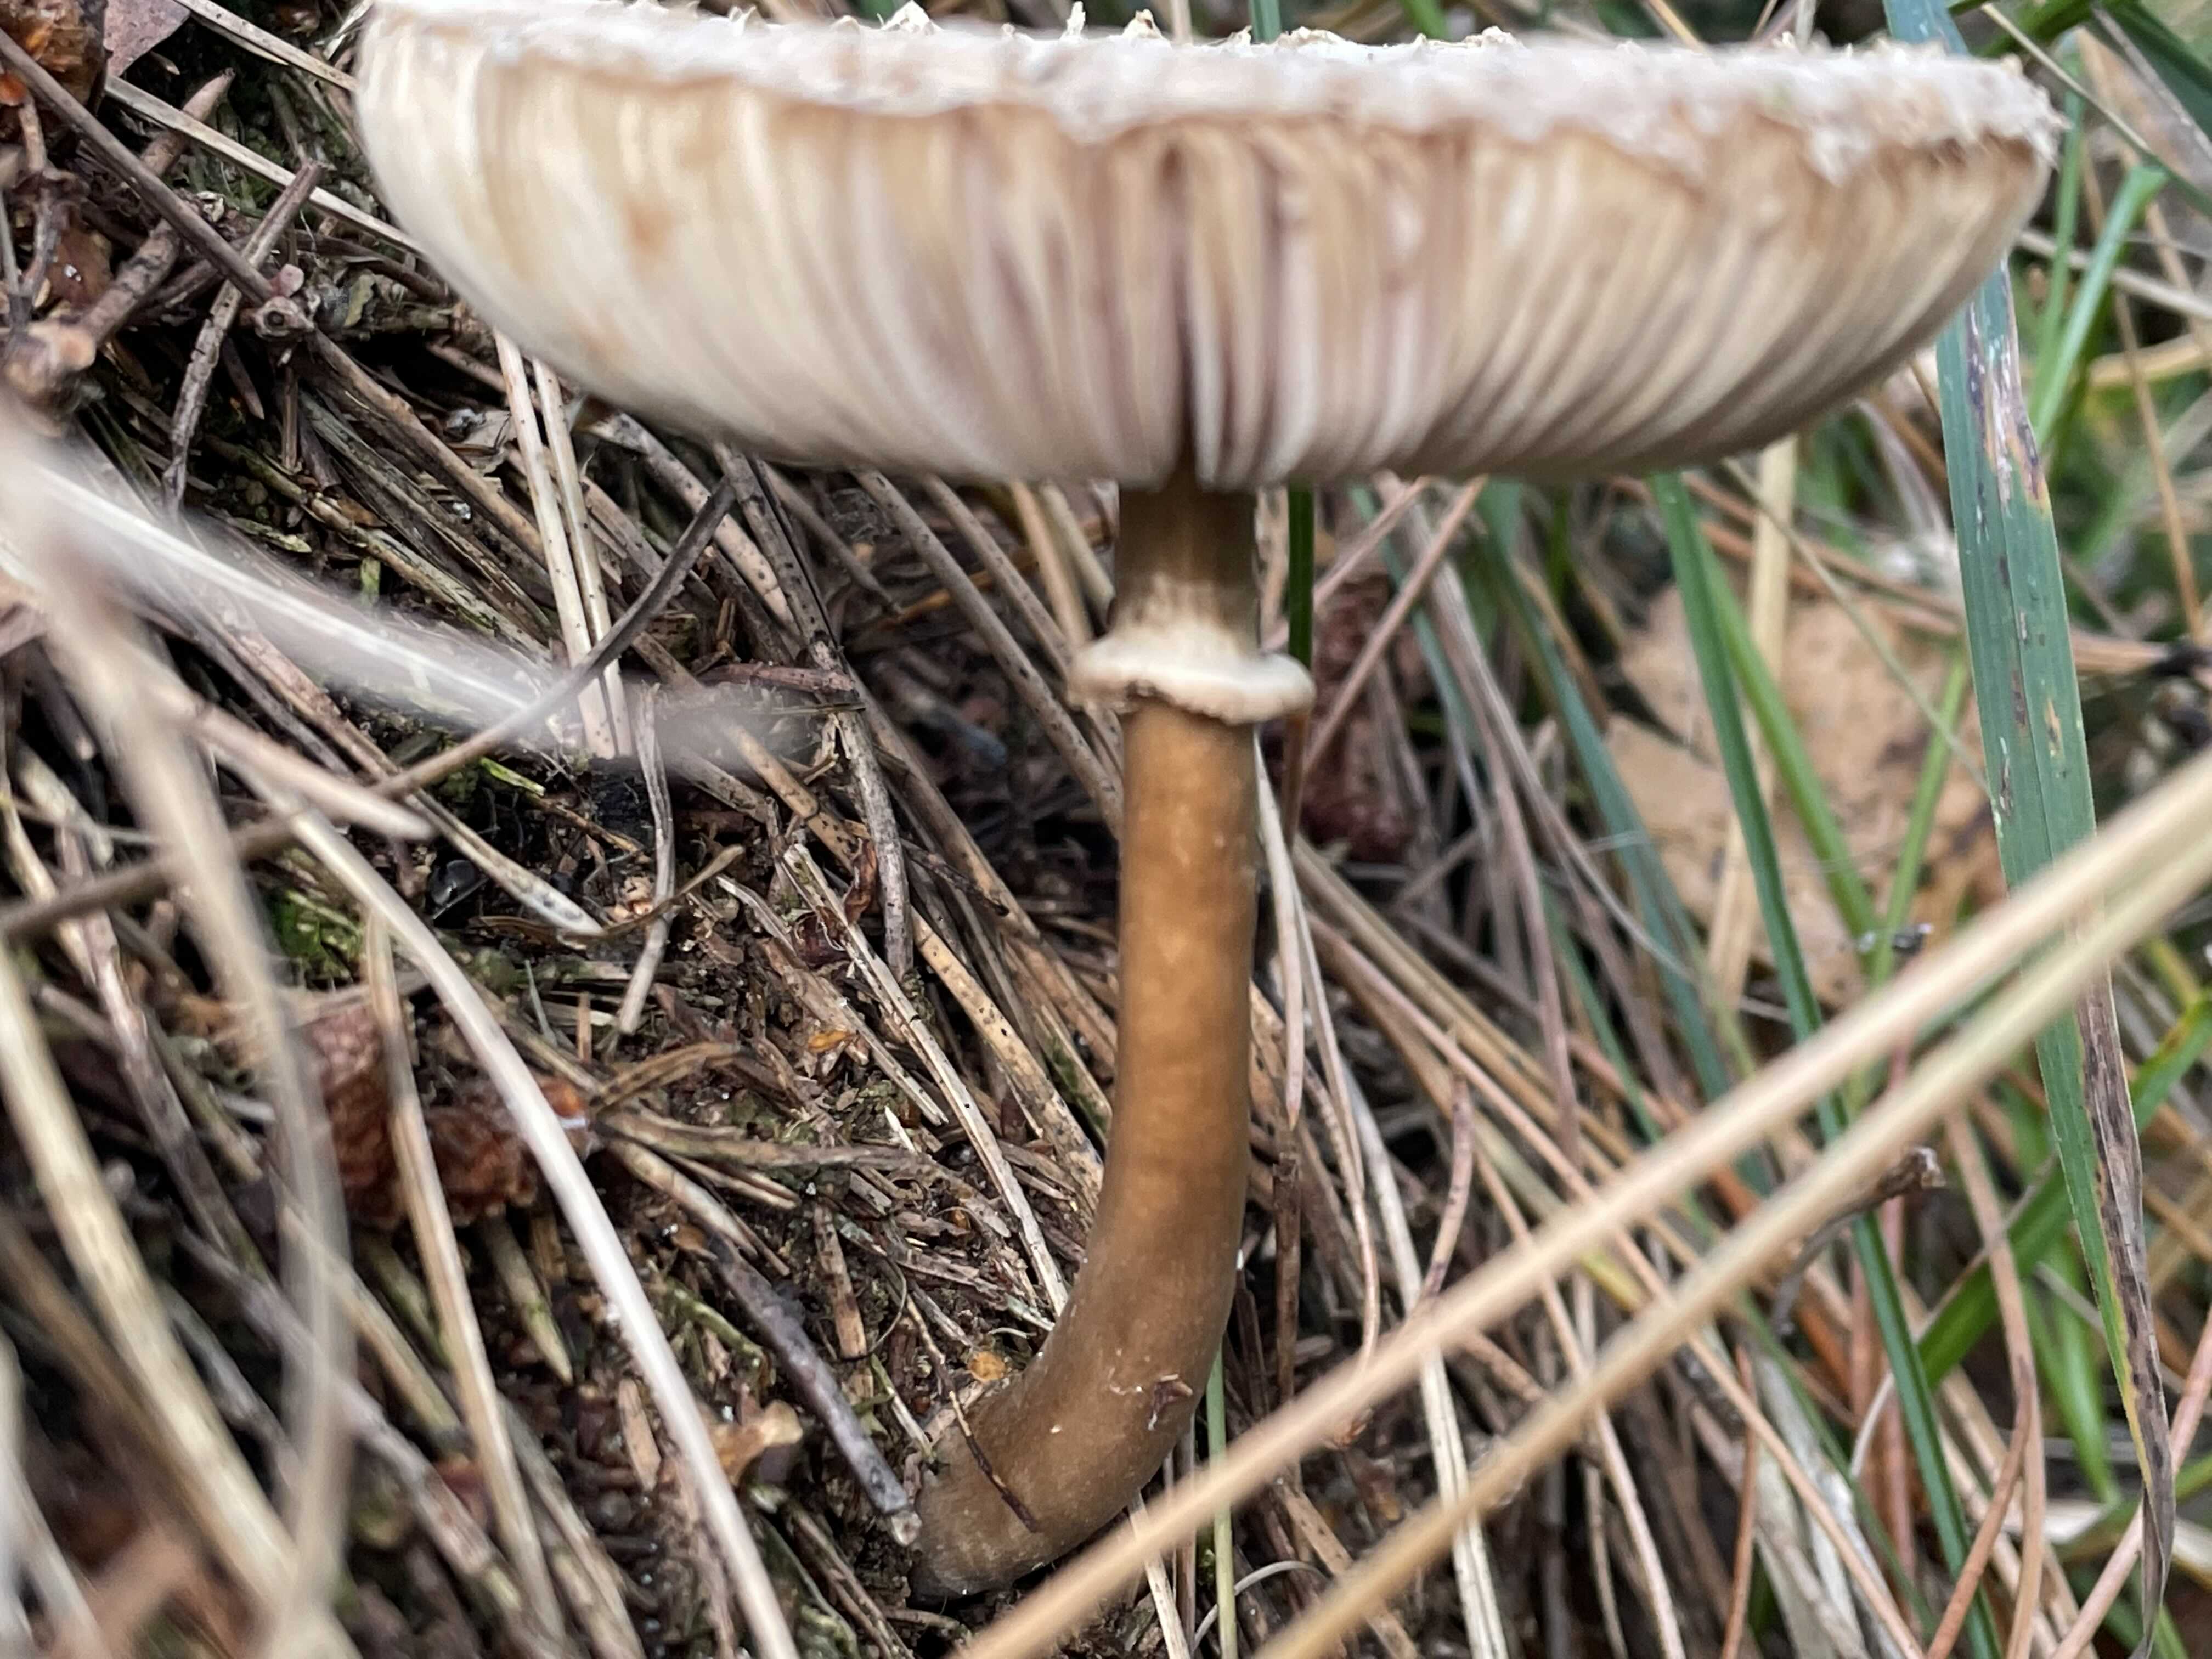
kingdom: Fungi
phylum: Basidiomycota
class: Agaricomycetes
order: Agaricales
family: Agaricaceae
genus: Leucoagaricus
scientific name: Leucoagaricus nympharum
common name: gran-silkehat
